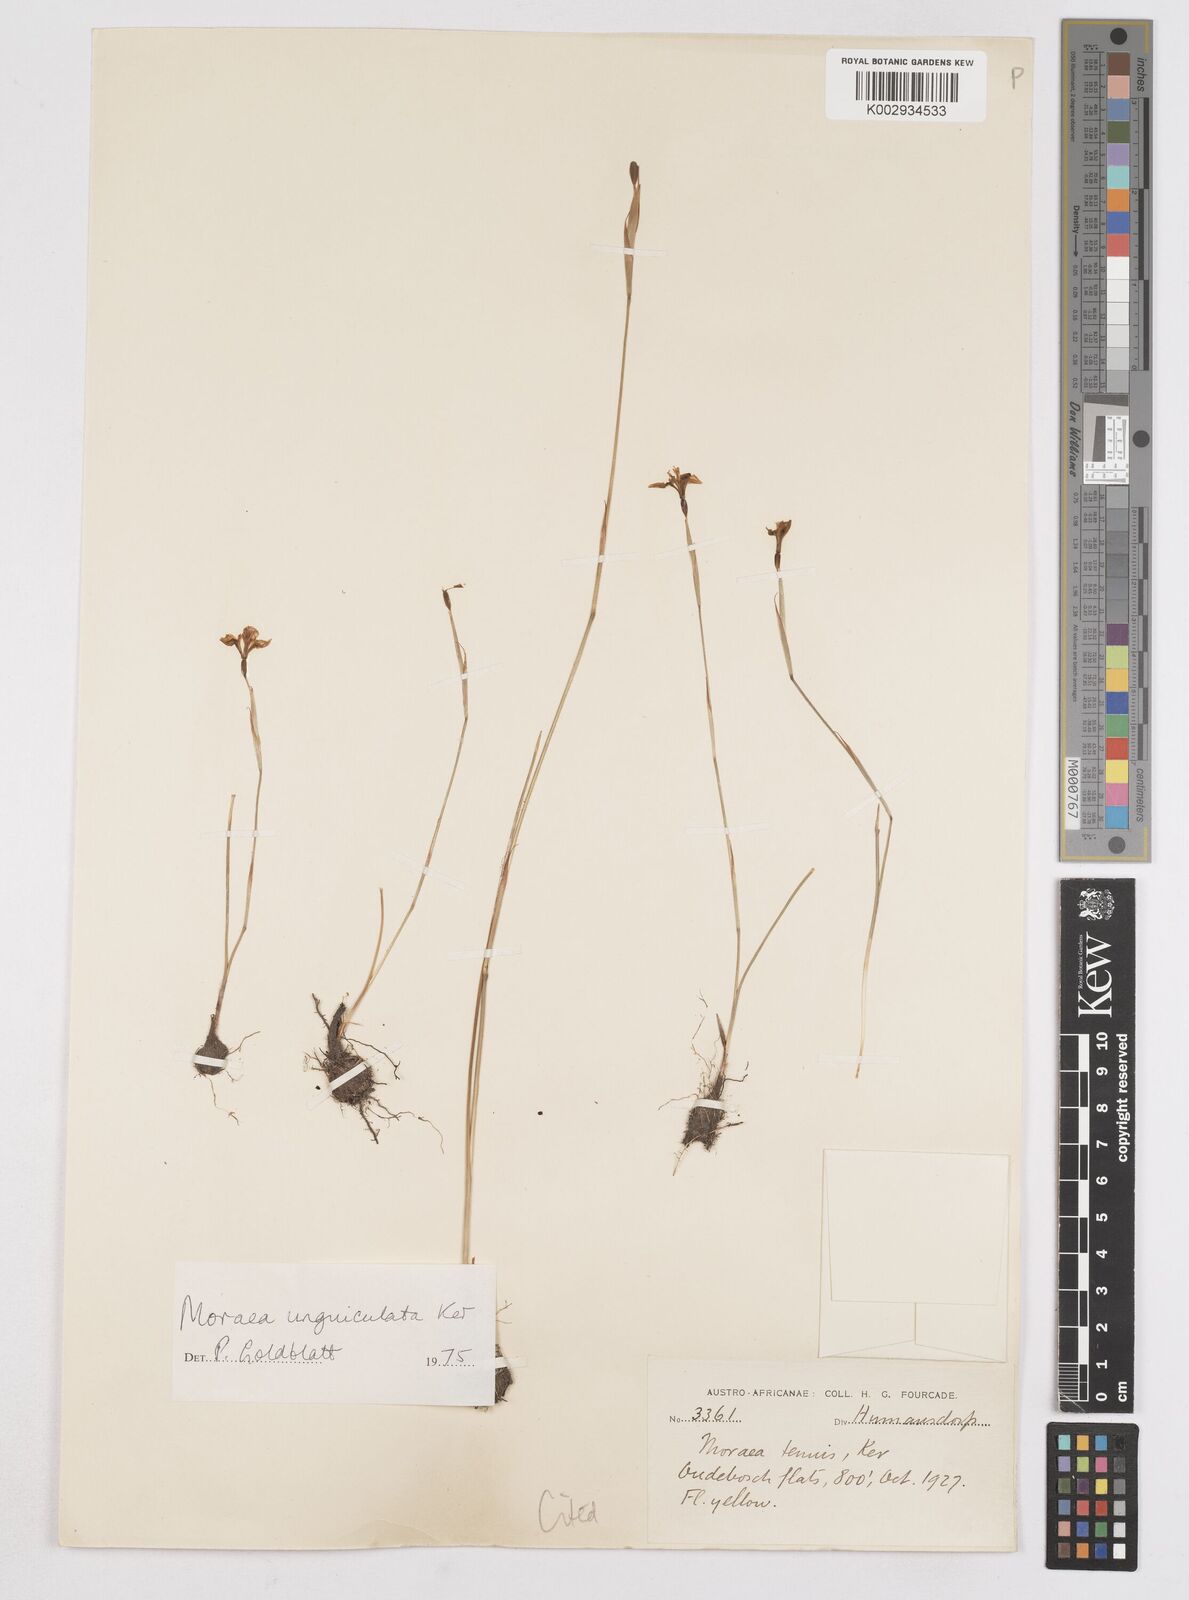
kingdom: Plantae
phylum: Tracheophyta
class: Liliopsida
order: Asparagales
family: Iridaceae
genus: Moraea
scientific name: Moraea unguiculata
